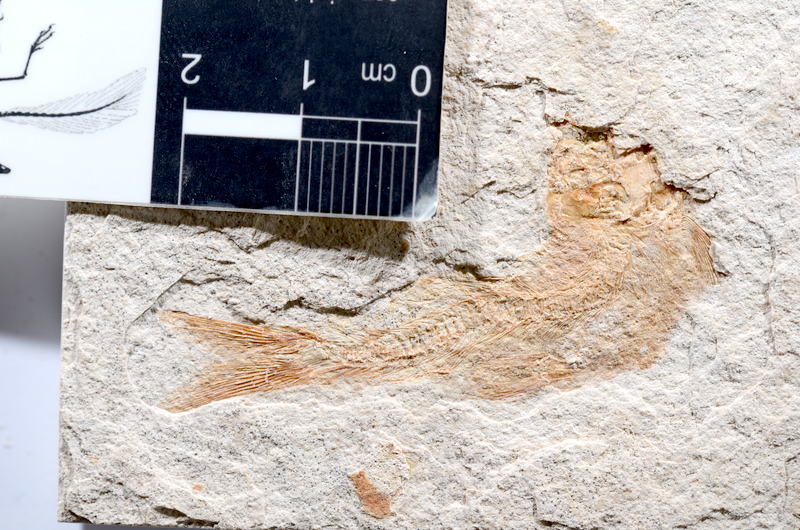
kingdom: Animalia
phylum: Chordata
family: Ascalaboidae
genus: Tharsis
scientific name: Tharsis dubius
